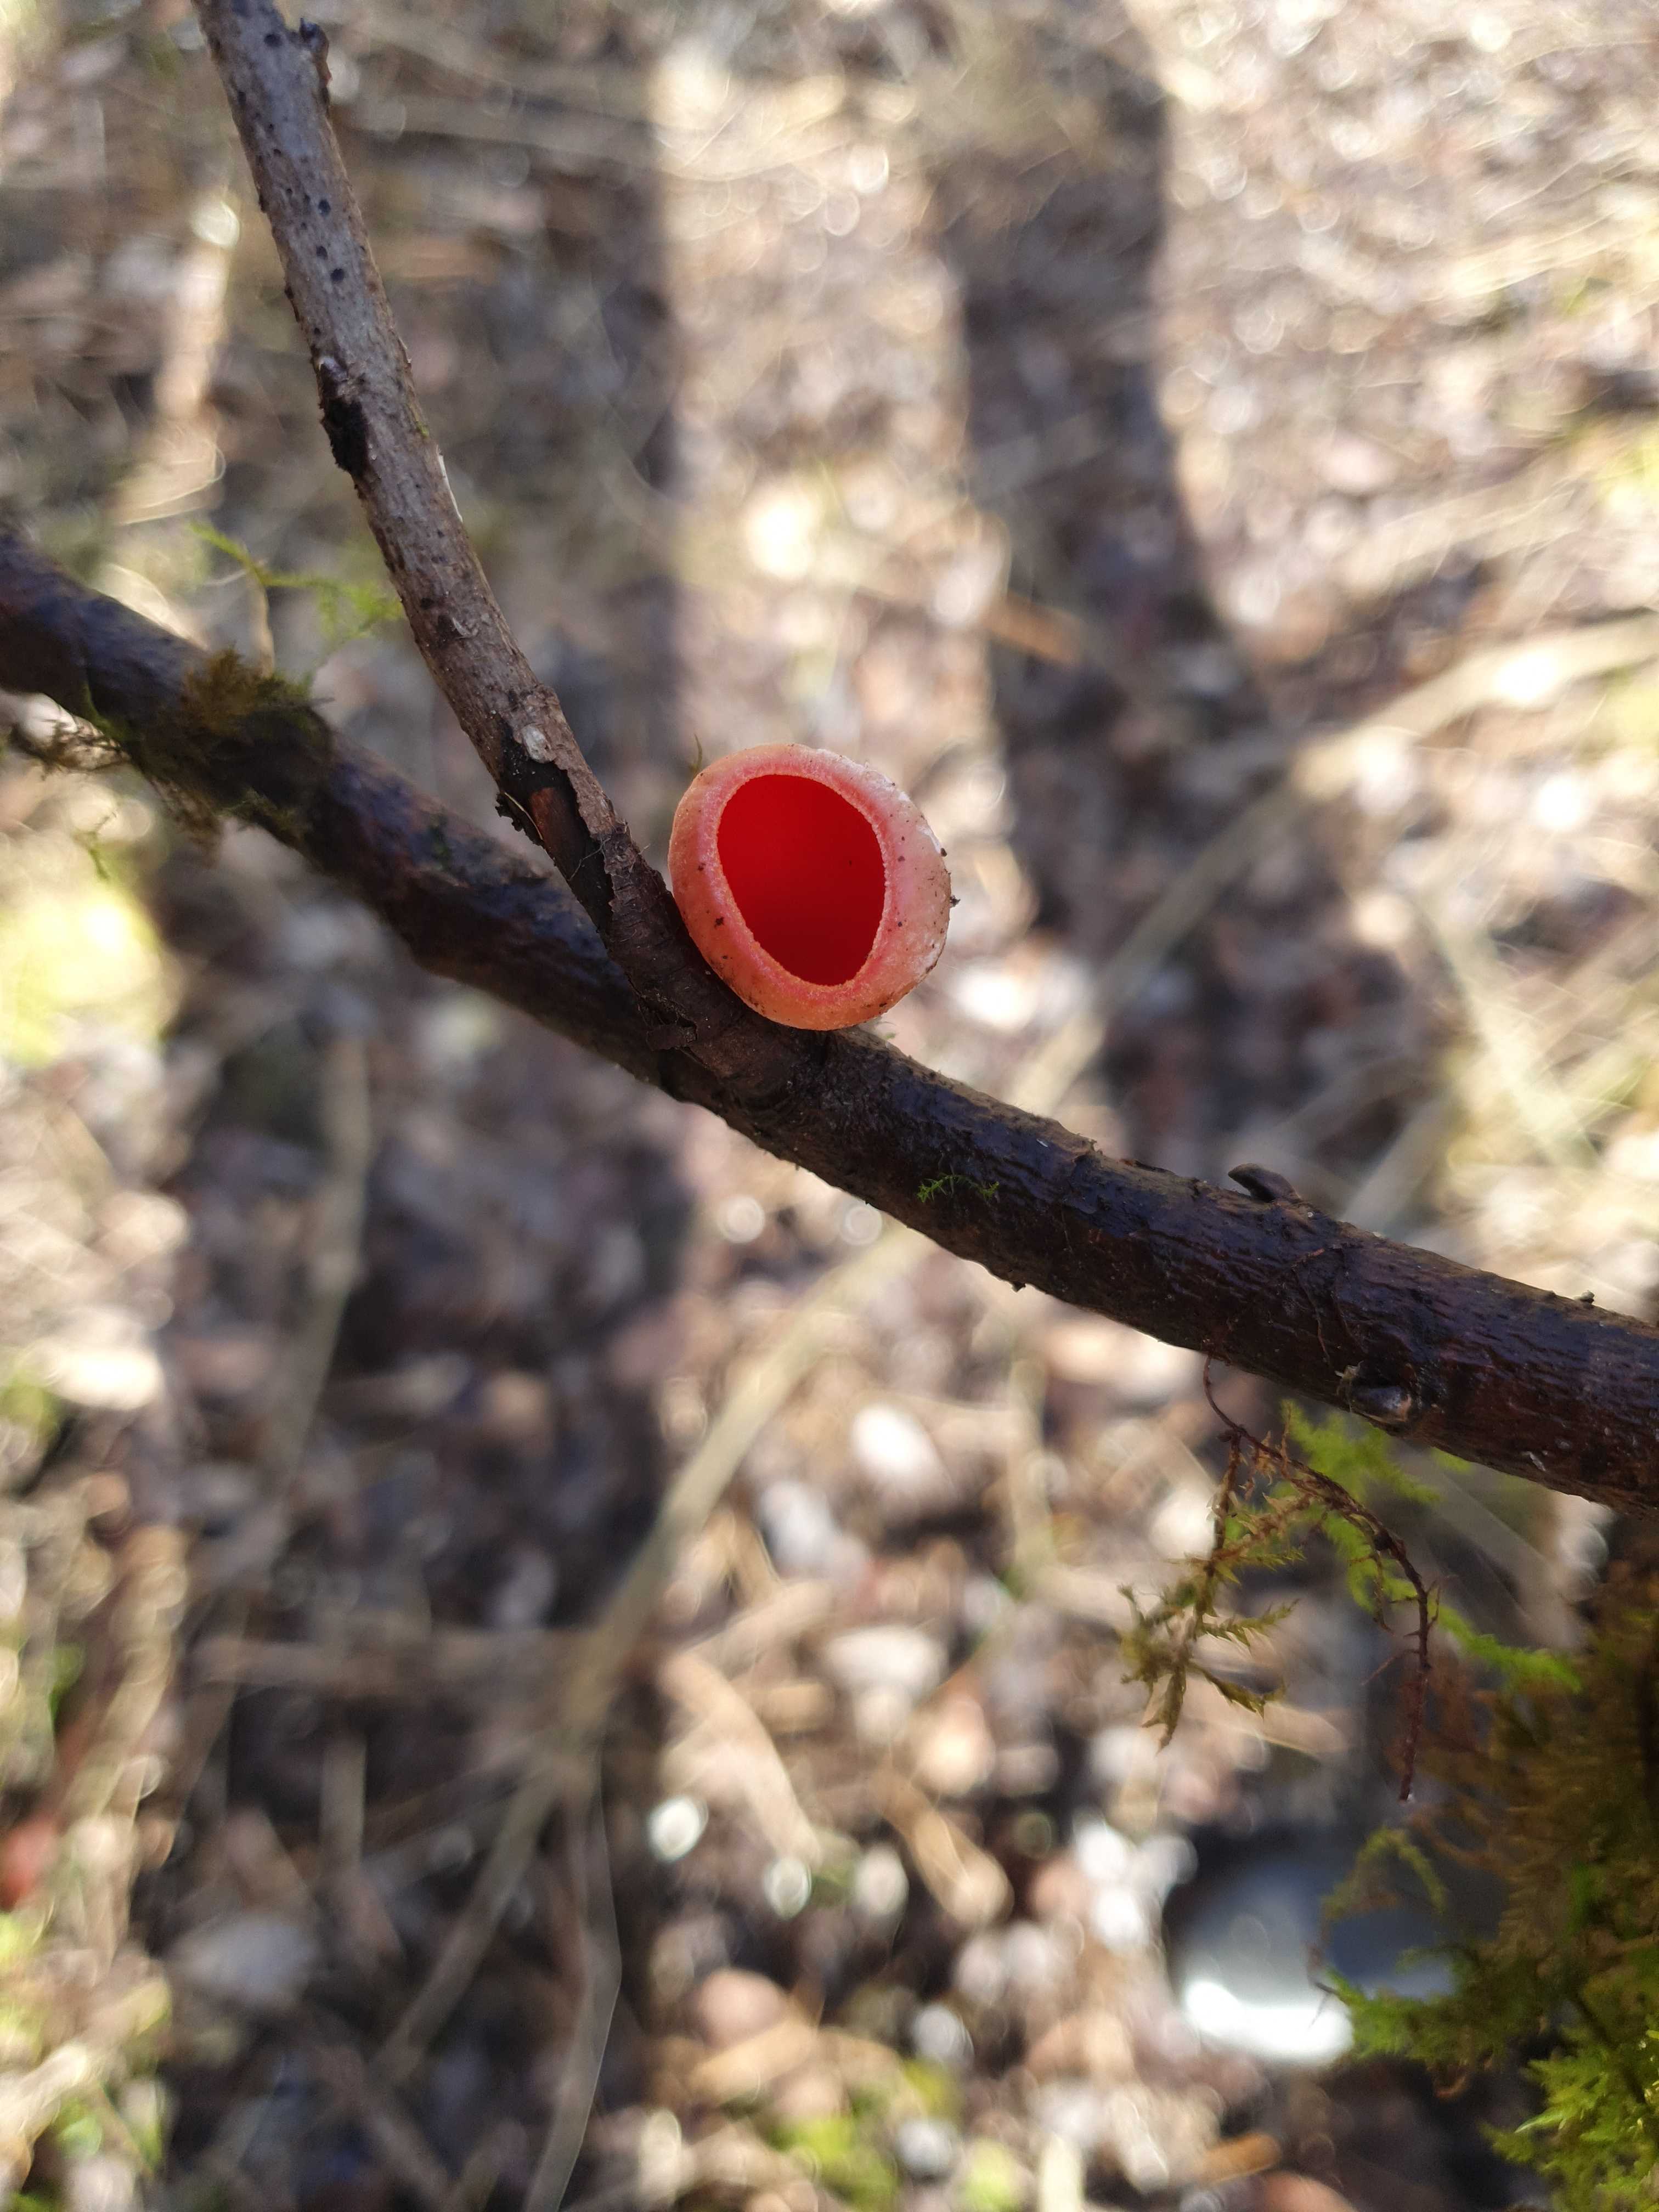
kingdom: Fungi
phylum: Ascomycota
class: Pezizomycetes
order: Pezizales
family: Sarcoscyphaceae
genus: Sarcoscypha
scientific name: Sarcoscypha austriaca
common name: krølhåret pragtbæger
